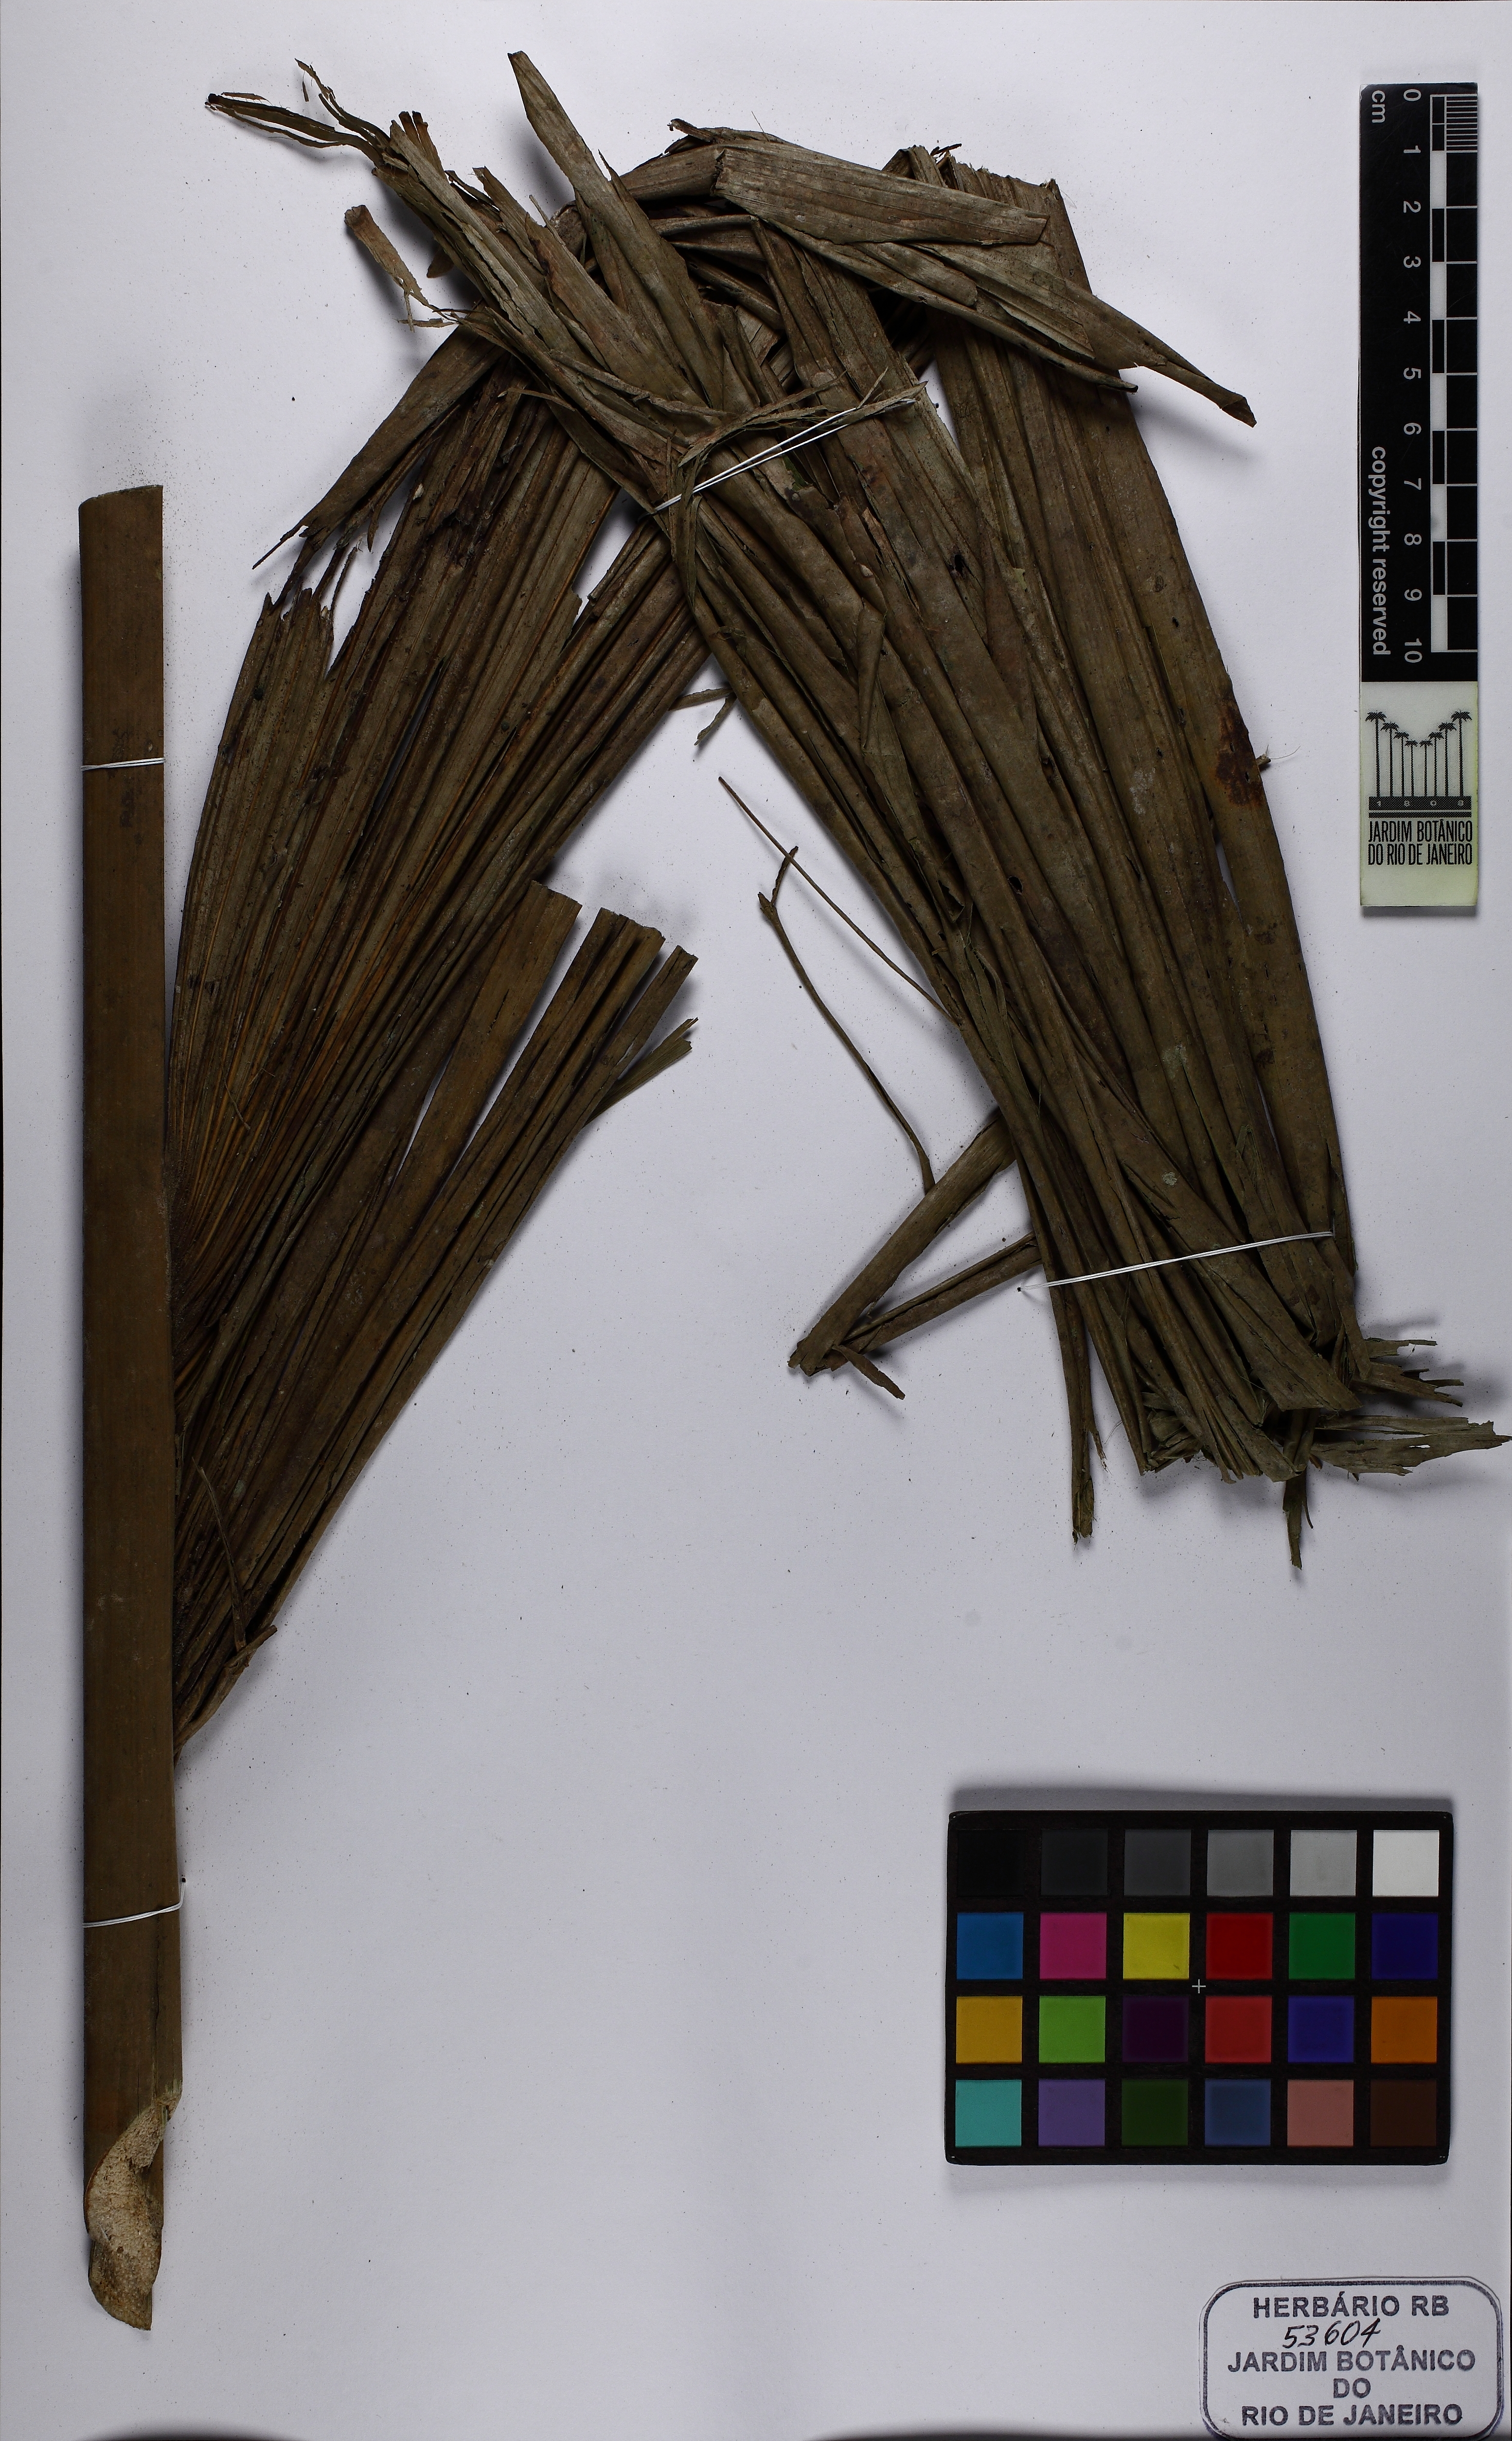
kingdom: Plantae
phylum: Tracheophyta
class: Liliopsida
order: Arecales
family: Arecaceae
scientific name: Arecaceae
